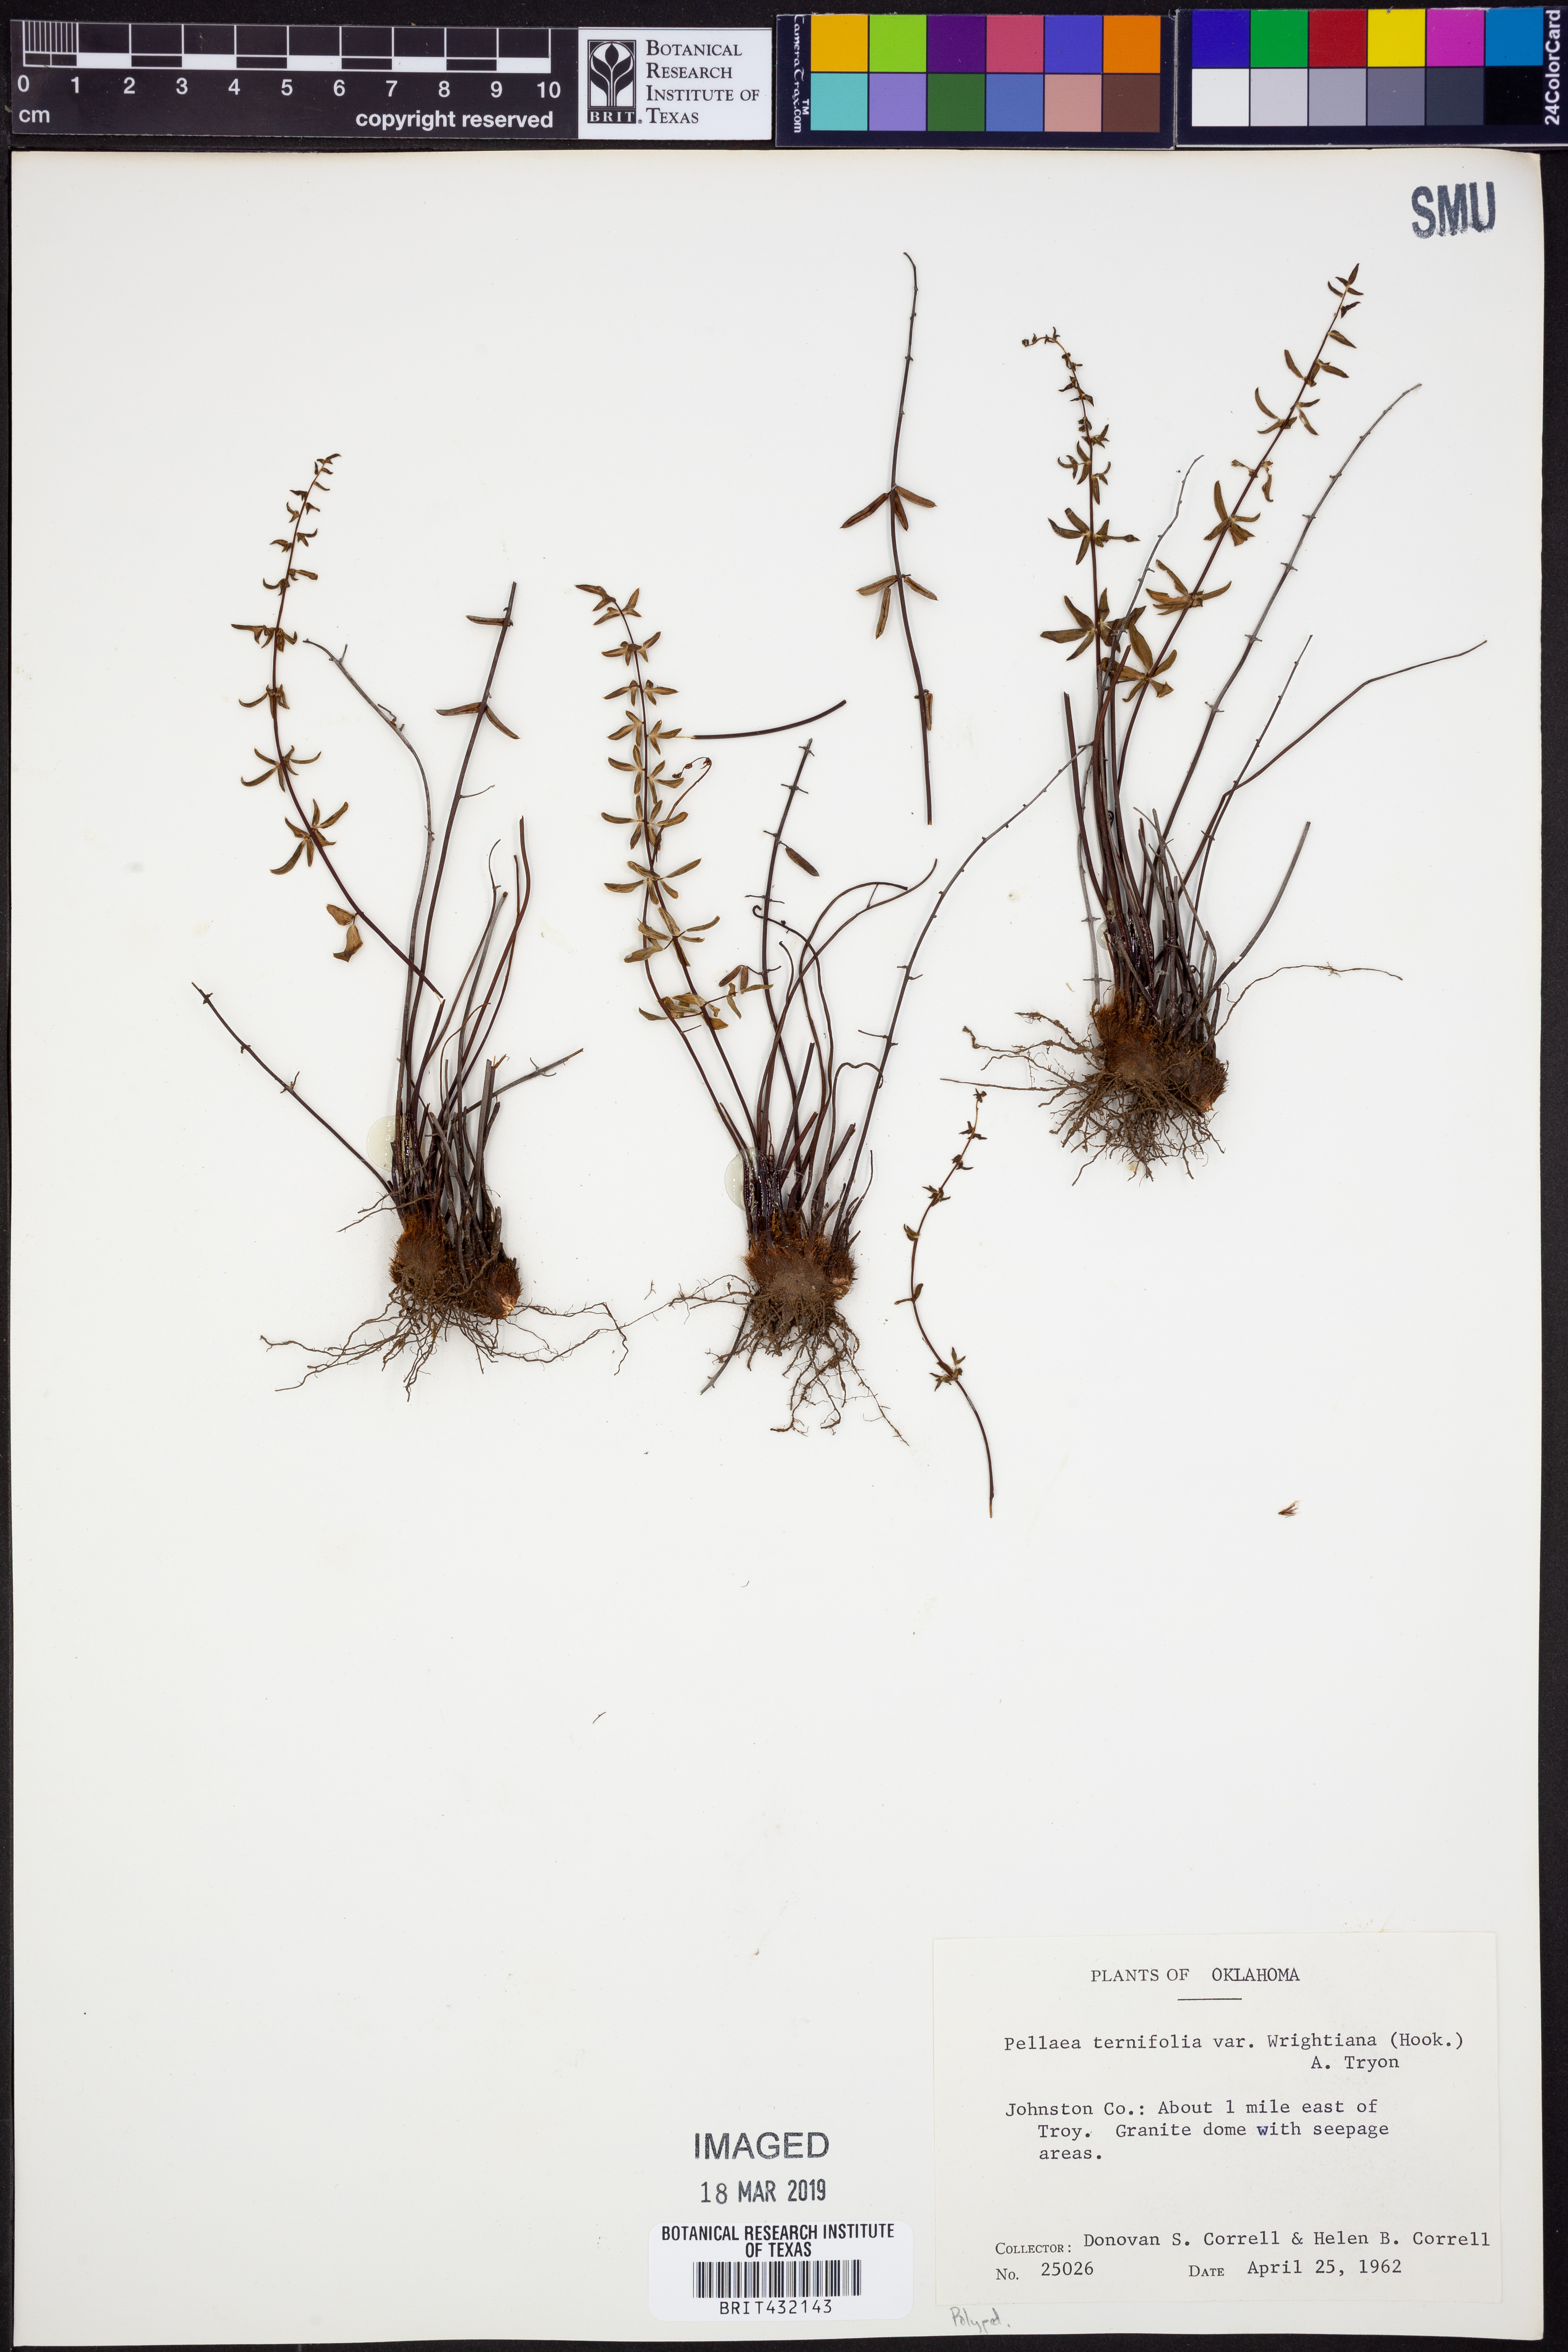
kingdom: Plantae
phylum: Tracheophyta
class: Polypodiopsida
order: Polypodiales
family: Pteridaceae
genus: Pellaea
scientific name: Pellaea wrightiana
